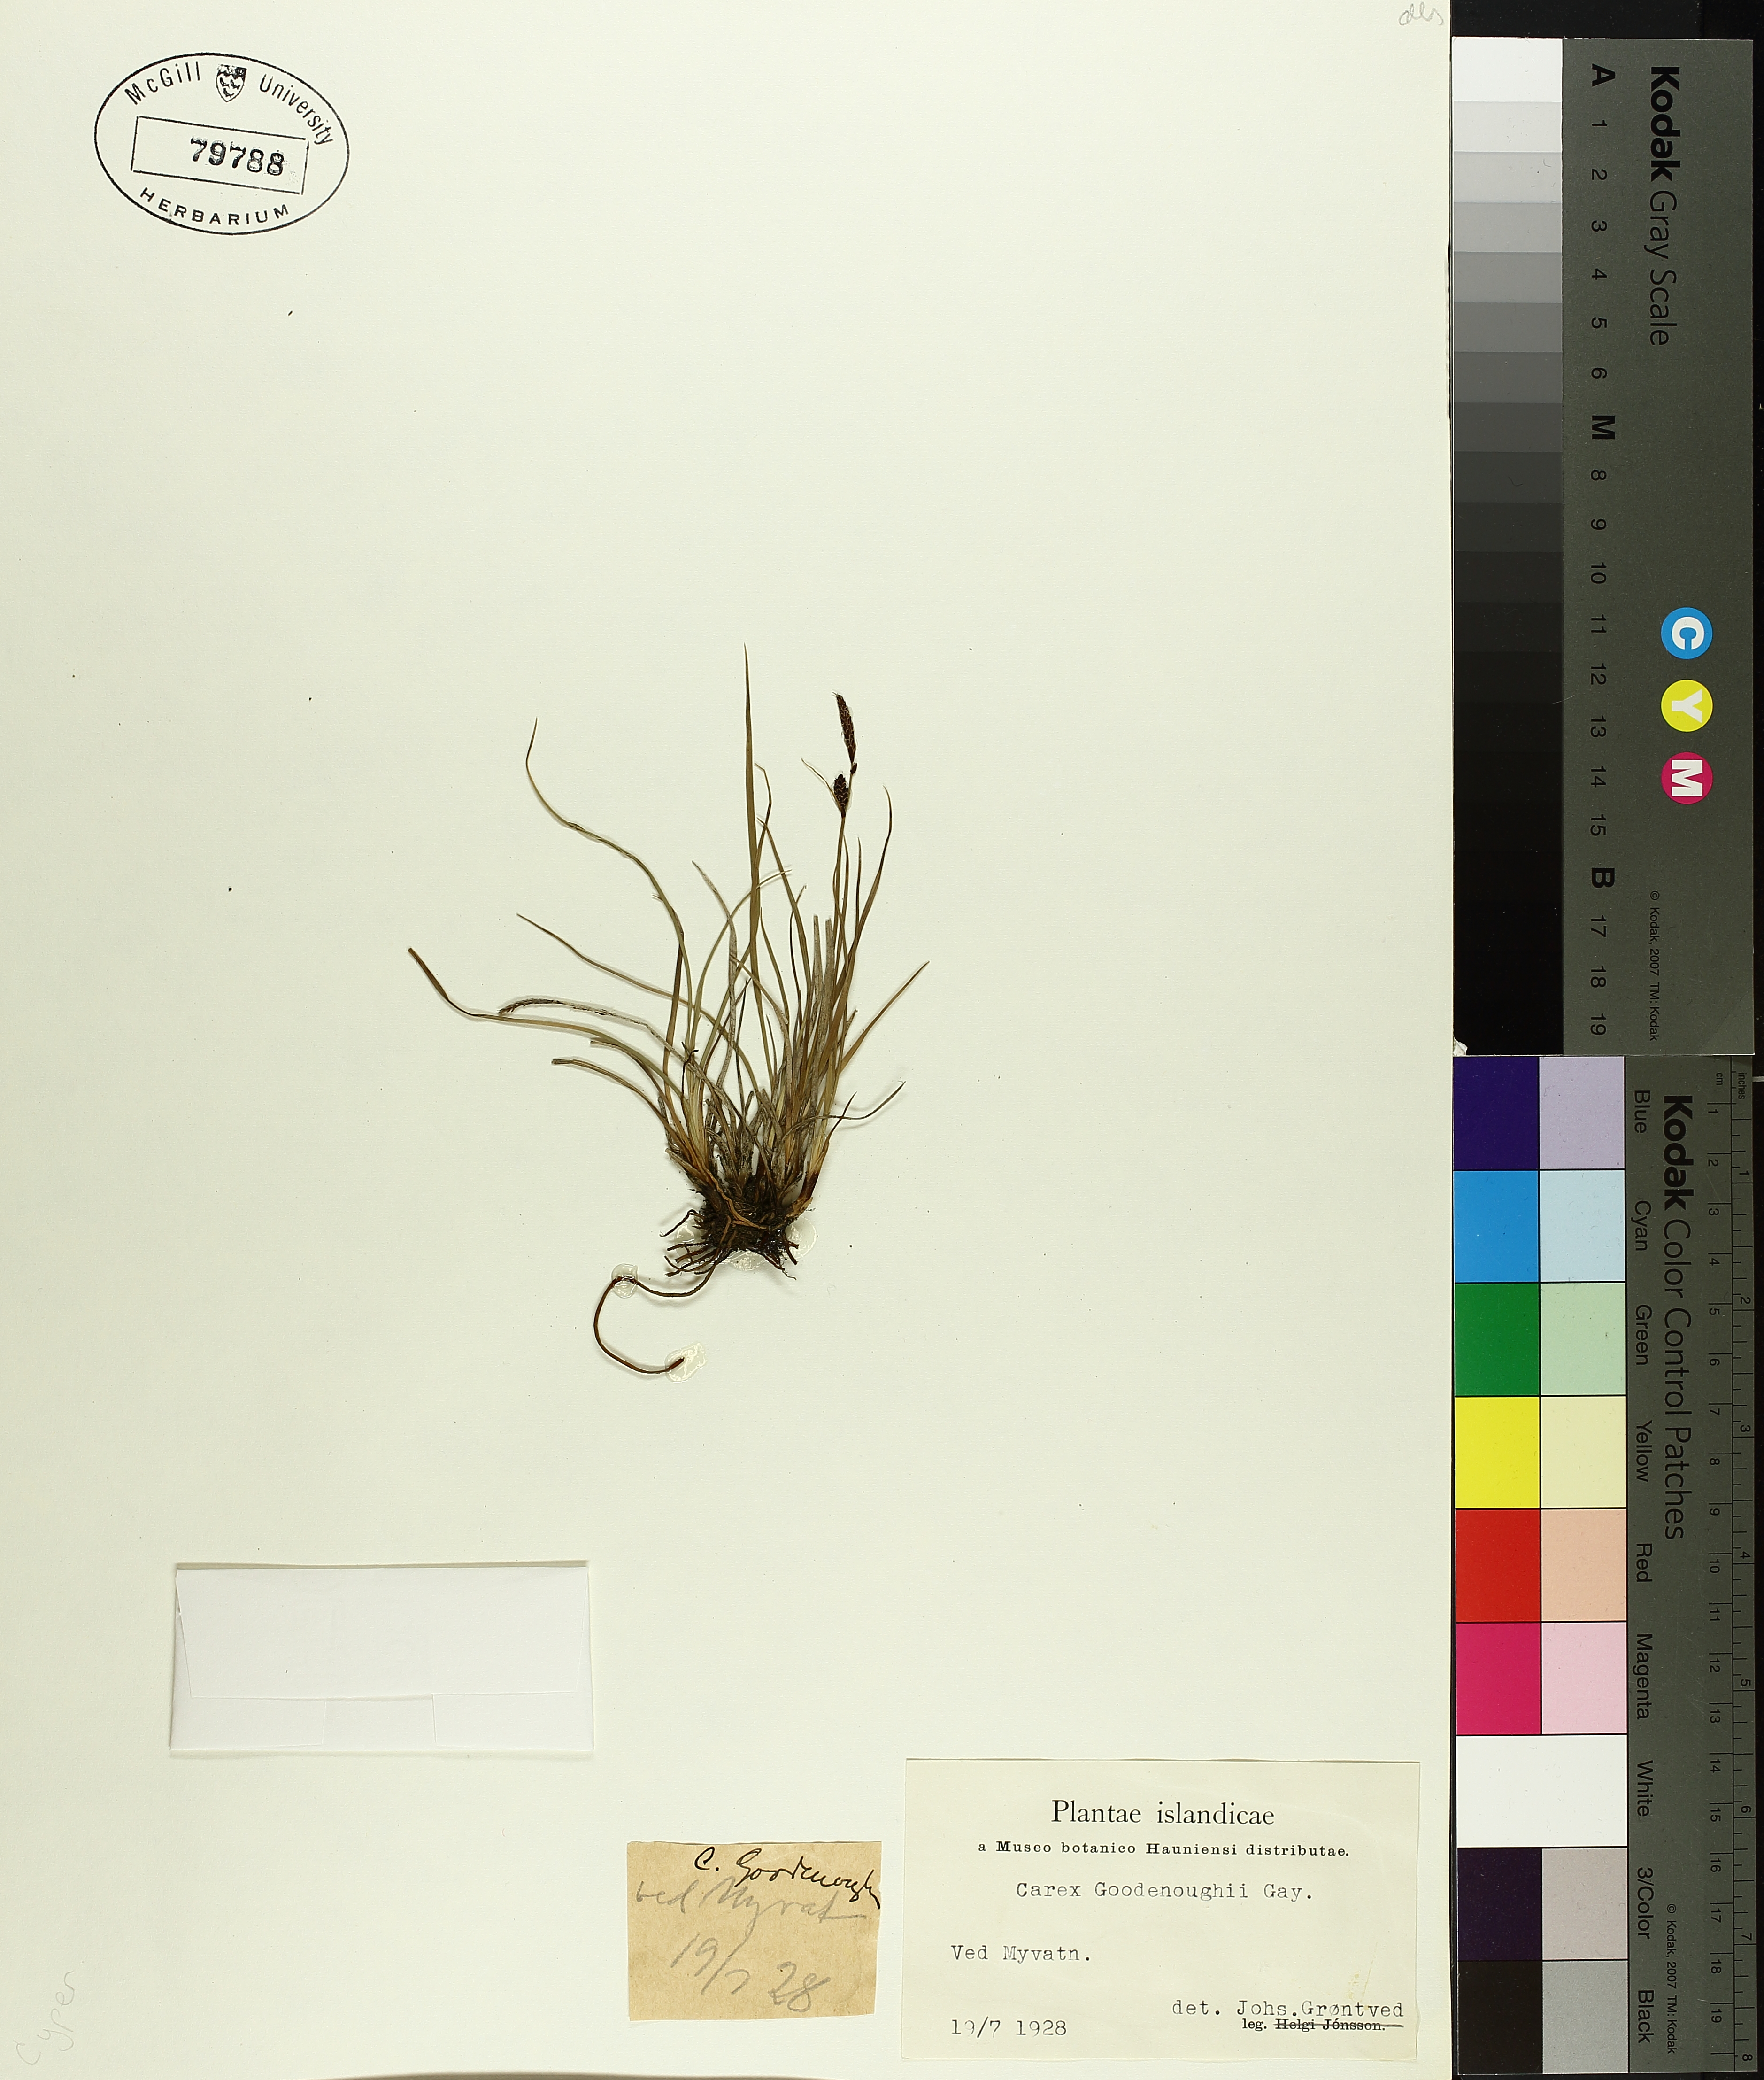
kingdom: Plantae
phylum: Tracheophyta
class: Liliopsida
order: Poales
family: Cyperaceae
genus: Carex
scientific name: Carex nigra
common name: Common sedge
